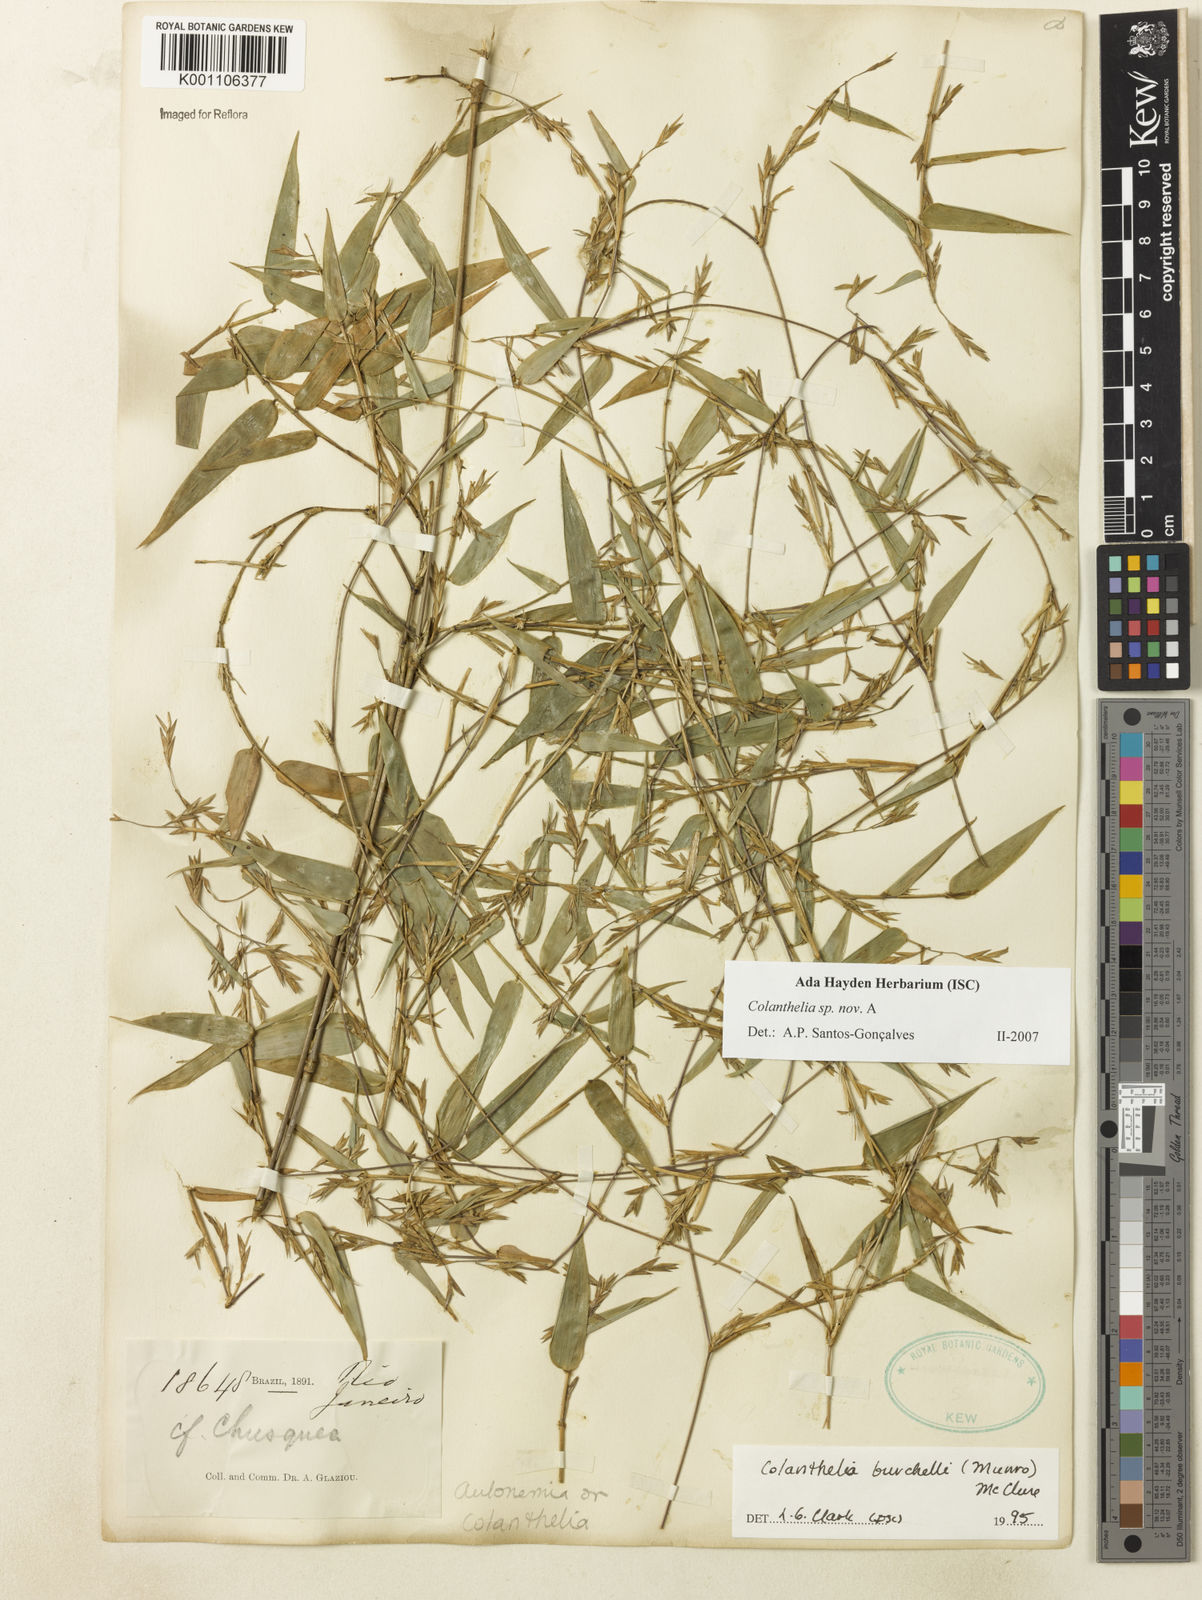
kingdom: Plantae
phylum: Tracheophyta
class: Liliopsida
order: Poales
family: Poaceae
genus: Colanthelia
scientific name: Colanthelia
